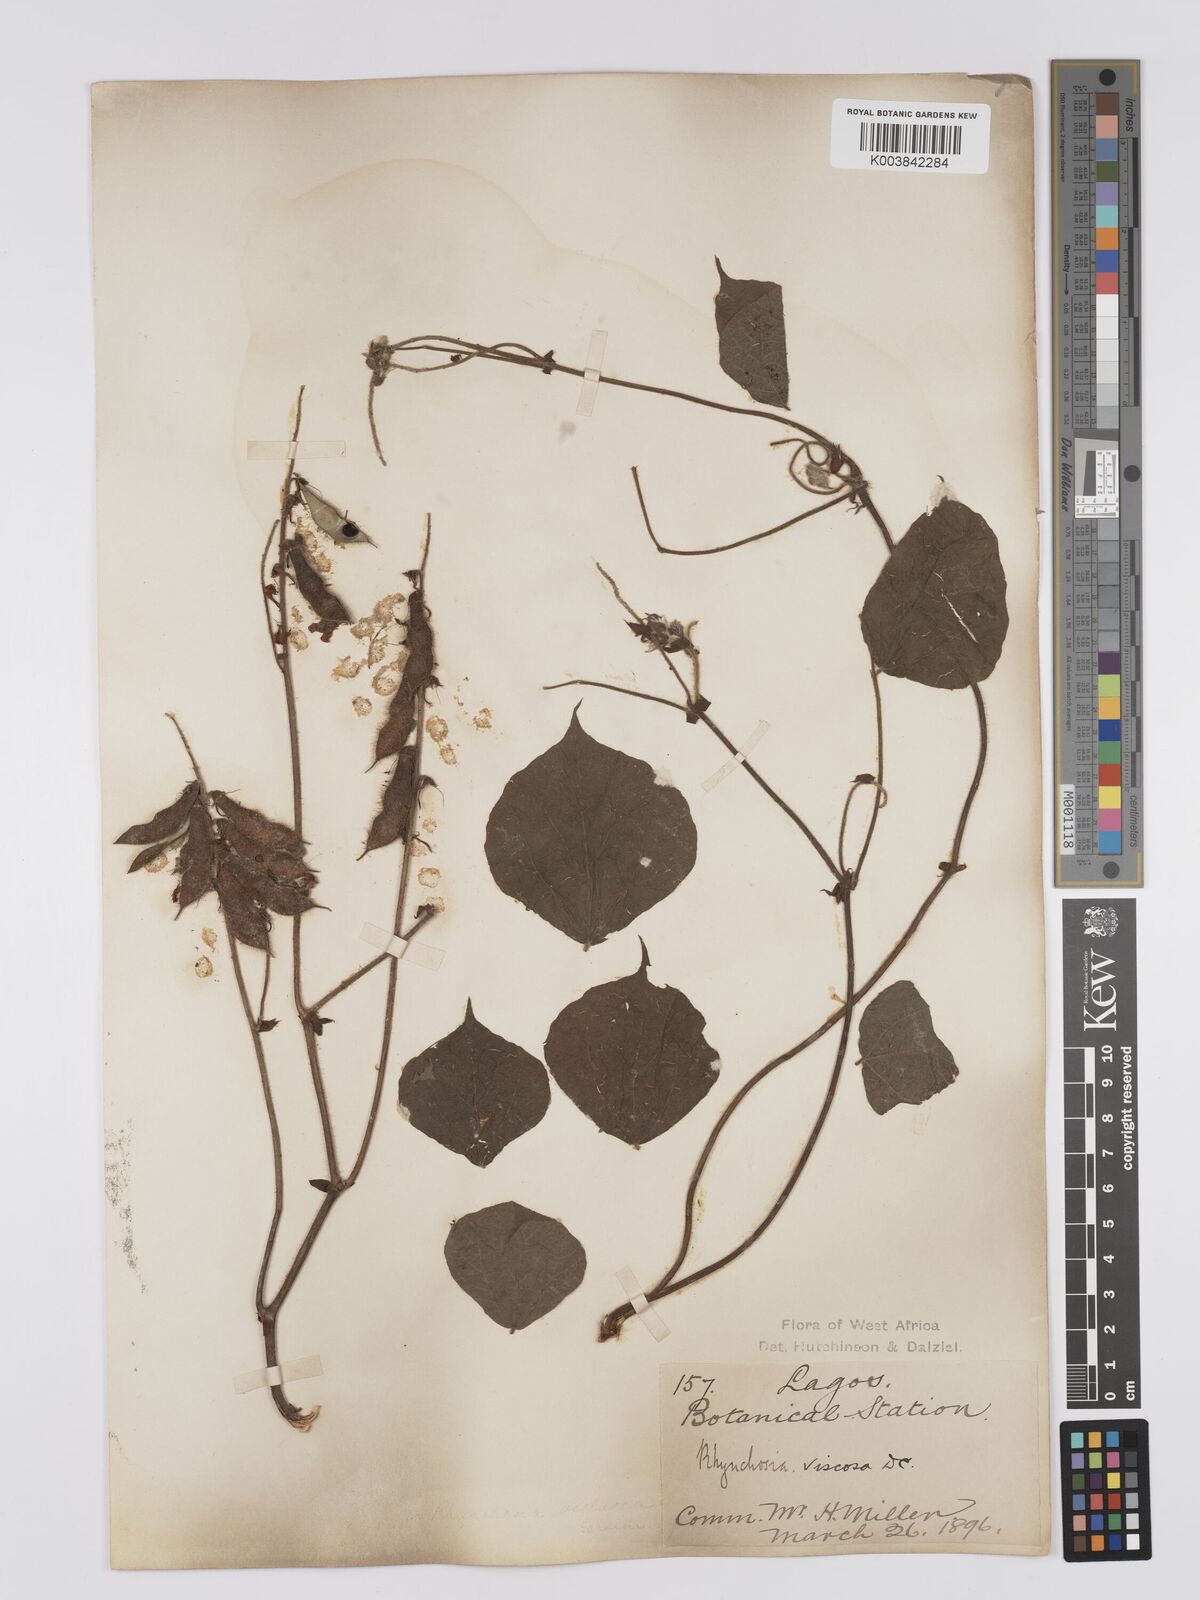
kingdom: Plantae
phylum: Tracheophyta
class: Magnoliopsida
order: Fabales
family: Fabaceae
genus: Rhynchosia
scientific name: Rhynchosia viscosa
